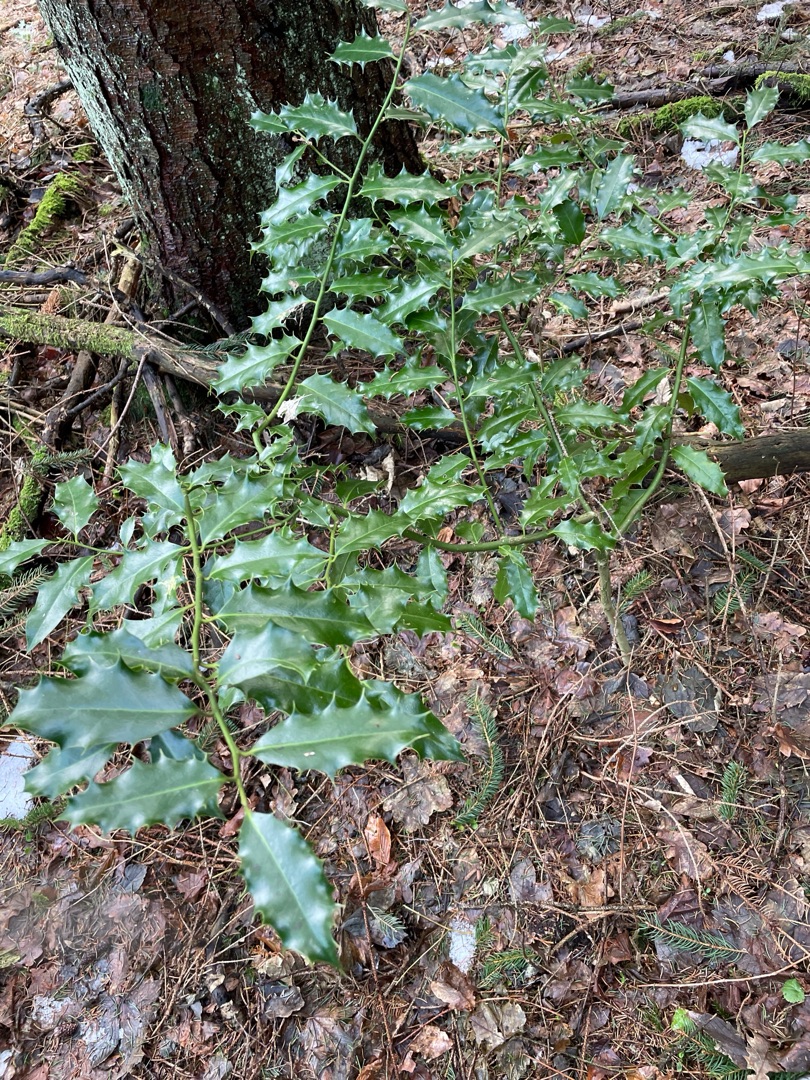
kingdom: Plantae
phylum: Tracheophyta
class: Magnoliopsida
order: Aquifoliales
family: Aquifoliaceae
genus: Ilex
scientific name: Ilex aquifolium
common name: Kristtorn
